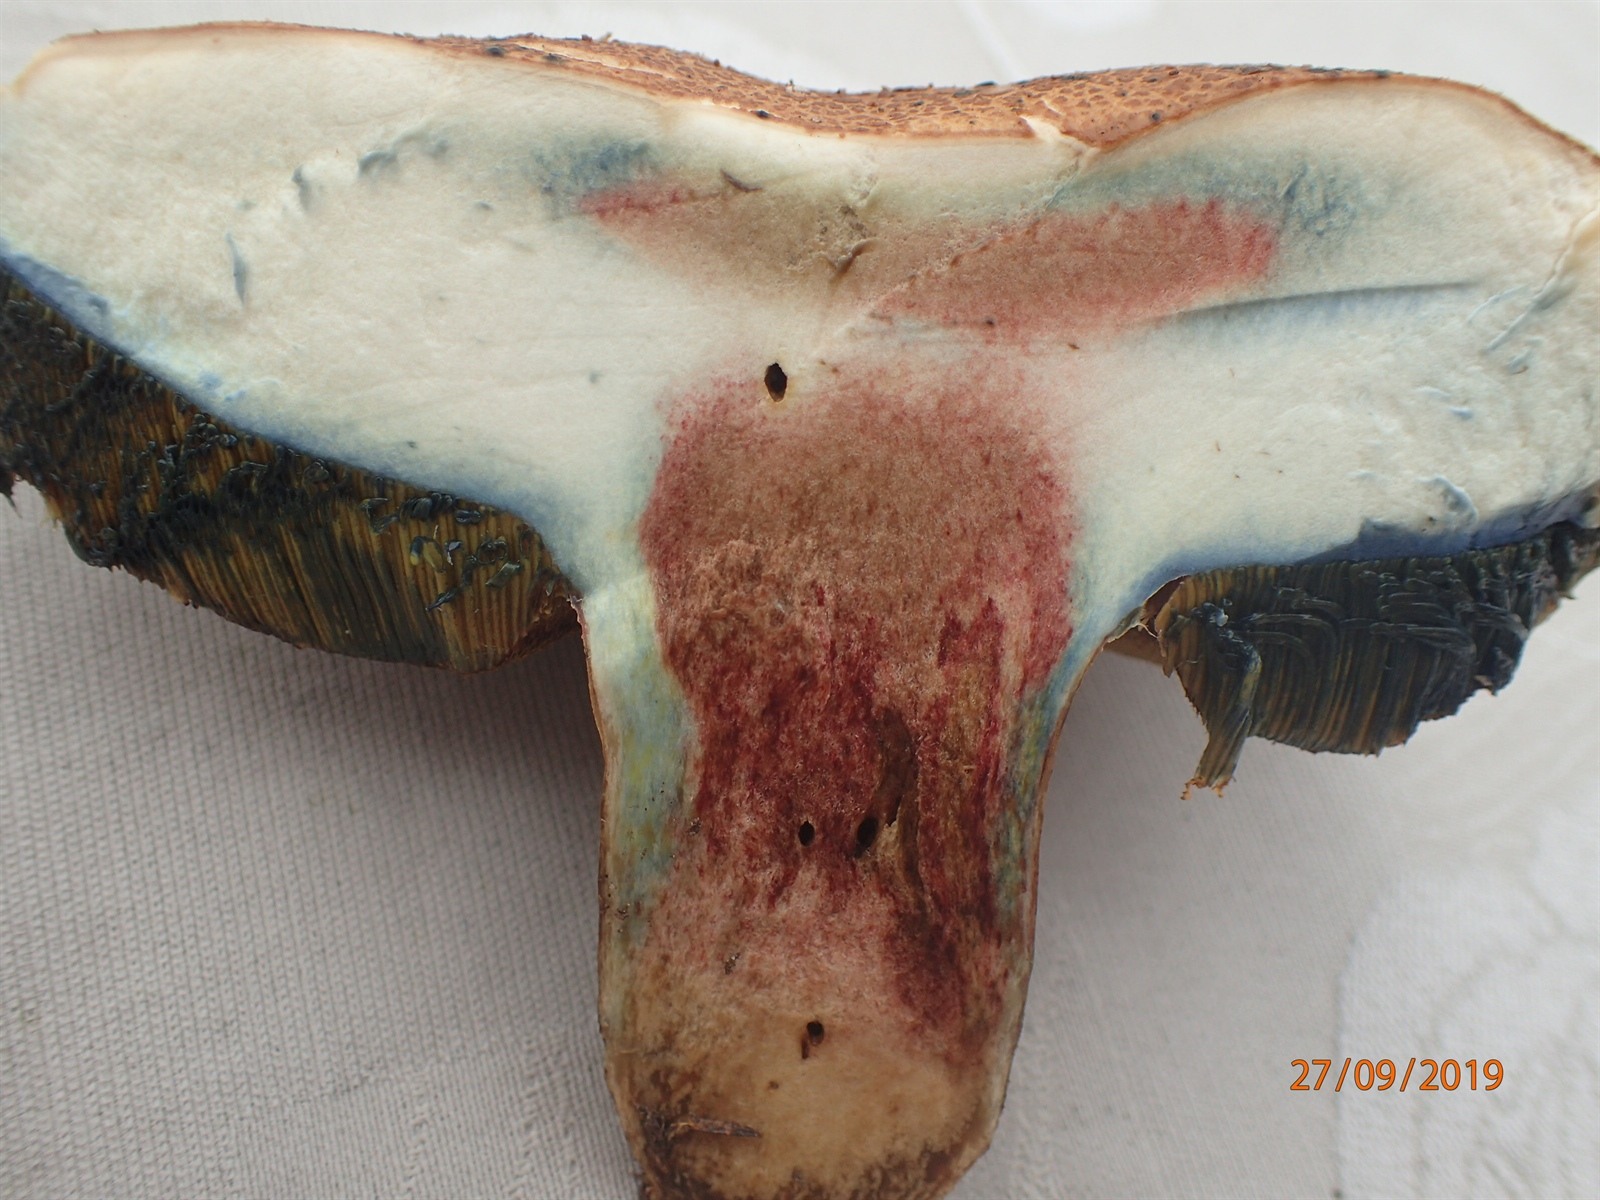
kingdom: Fungi
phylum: Basidiomycota
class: Agaricomycetes
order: Boletales
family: Boletaceae
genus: Caloboletus
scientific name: Caloboletus radicans
